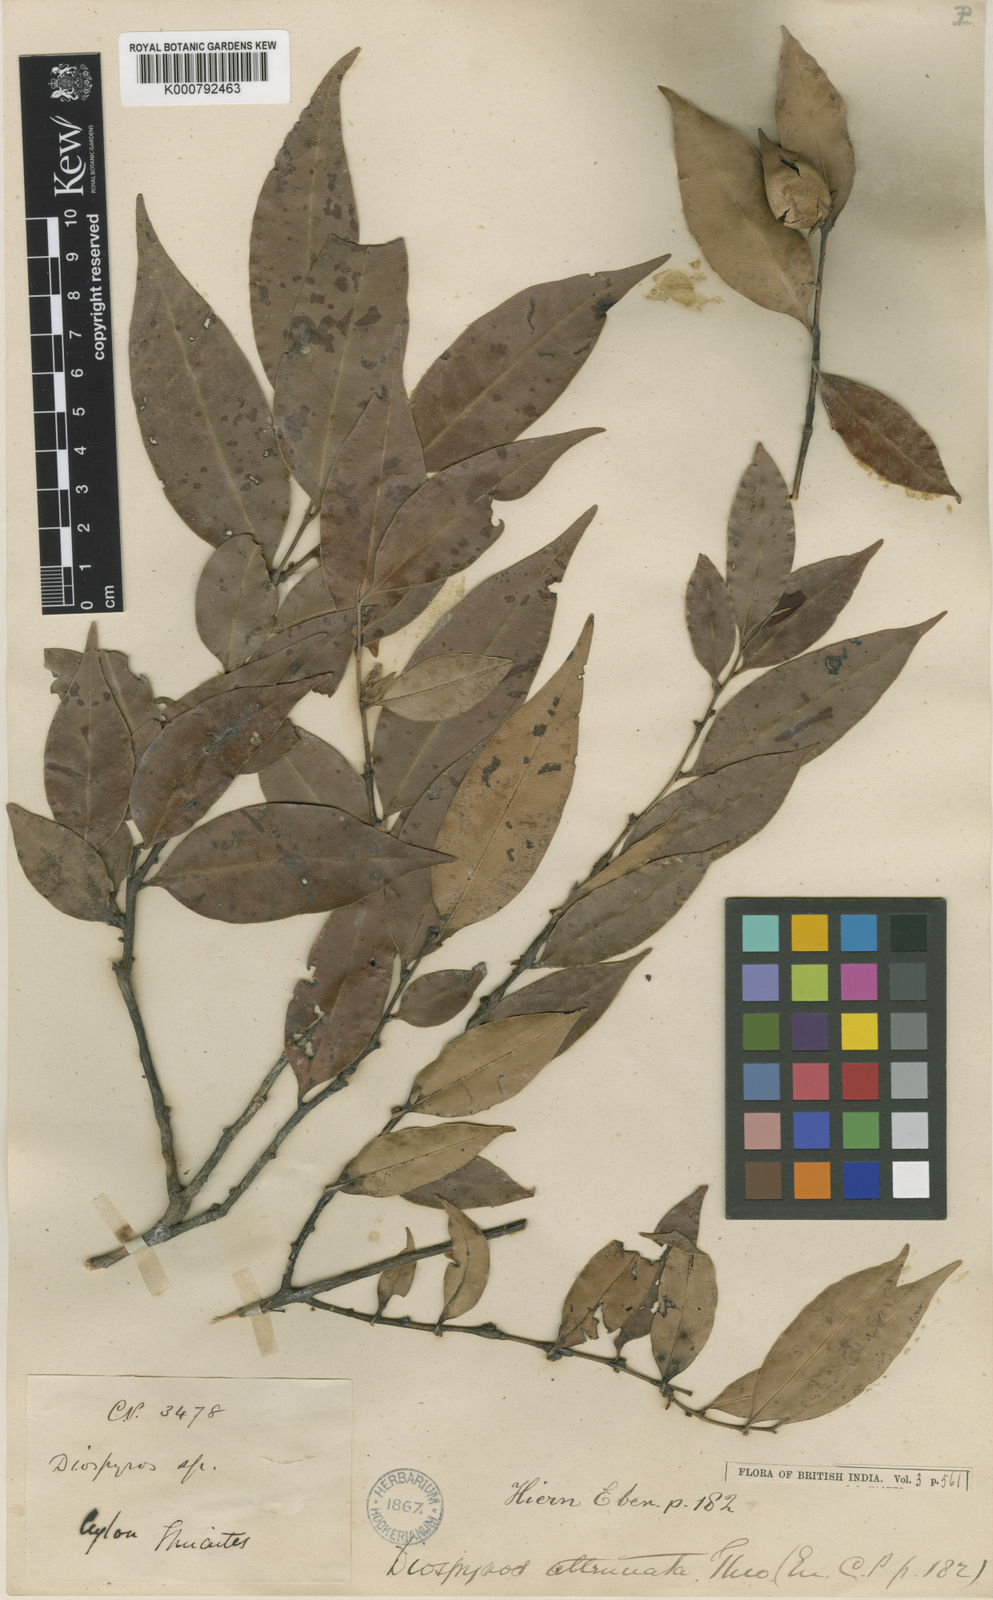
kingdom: Plantae
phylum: Tracheophyta
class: Magnoliopsida
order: Ericales
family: Ebenaceae
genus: Diospyros
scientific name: Diospyros attenuata
